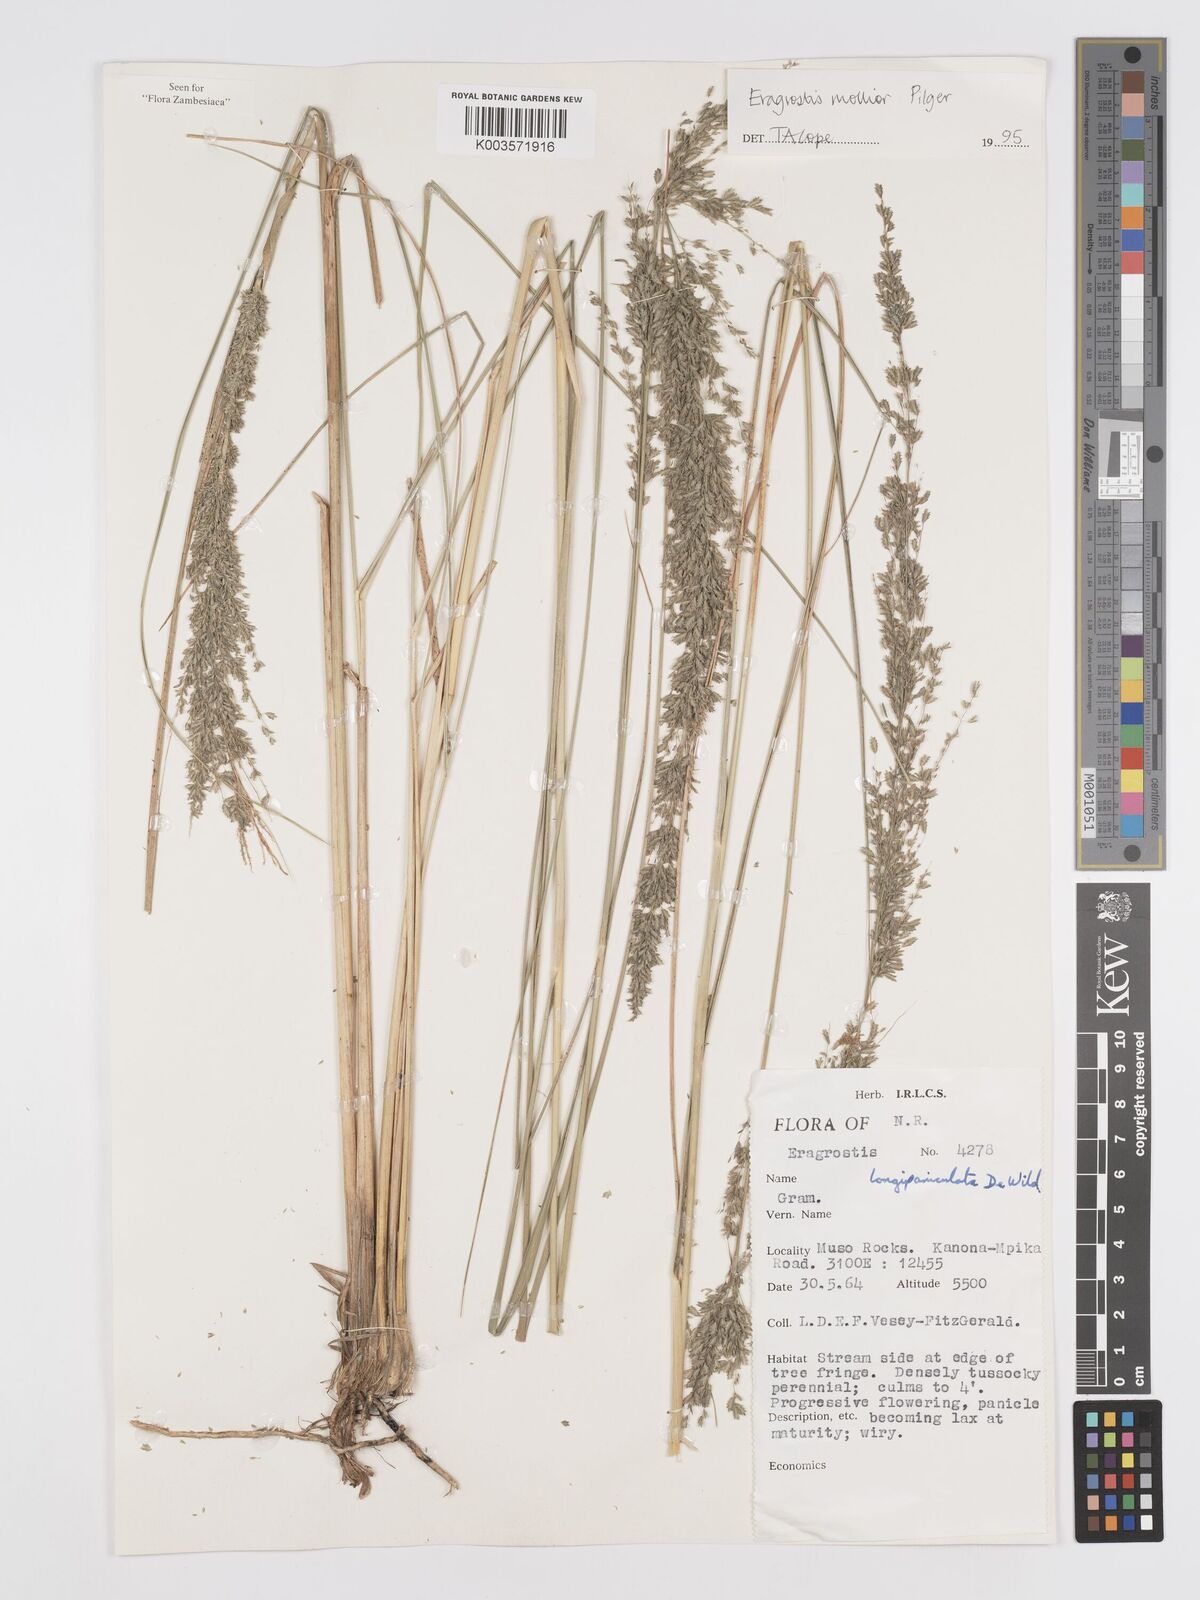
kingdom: Plantae
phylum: Tracheophyta
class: Liliopsida
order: Poales
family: Poaceae
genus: Eragrostis
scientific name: Eragrostis mollior
